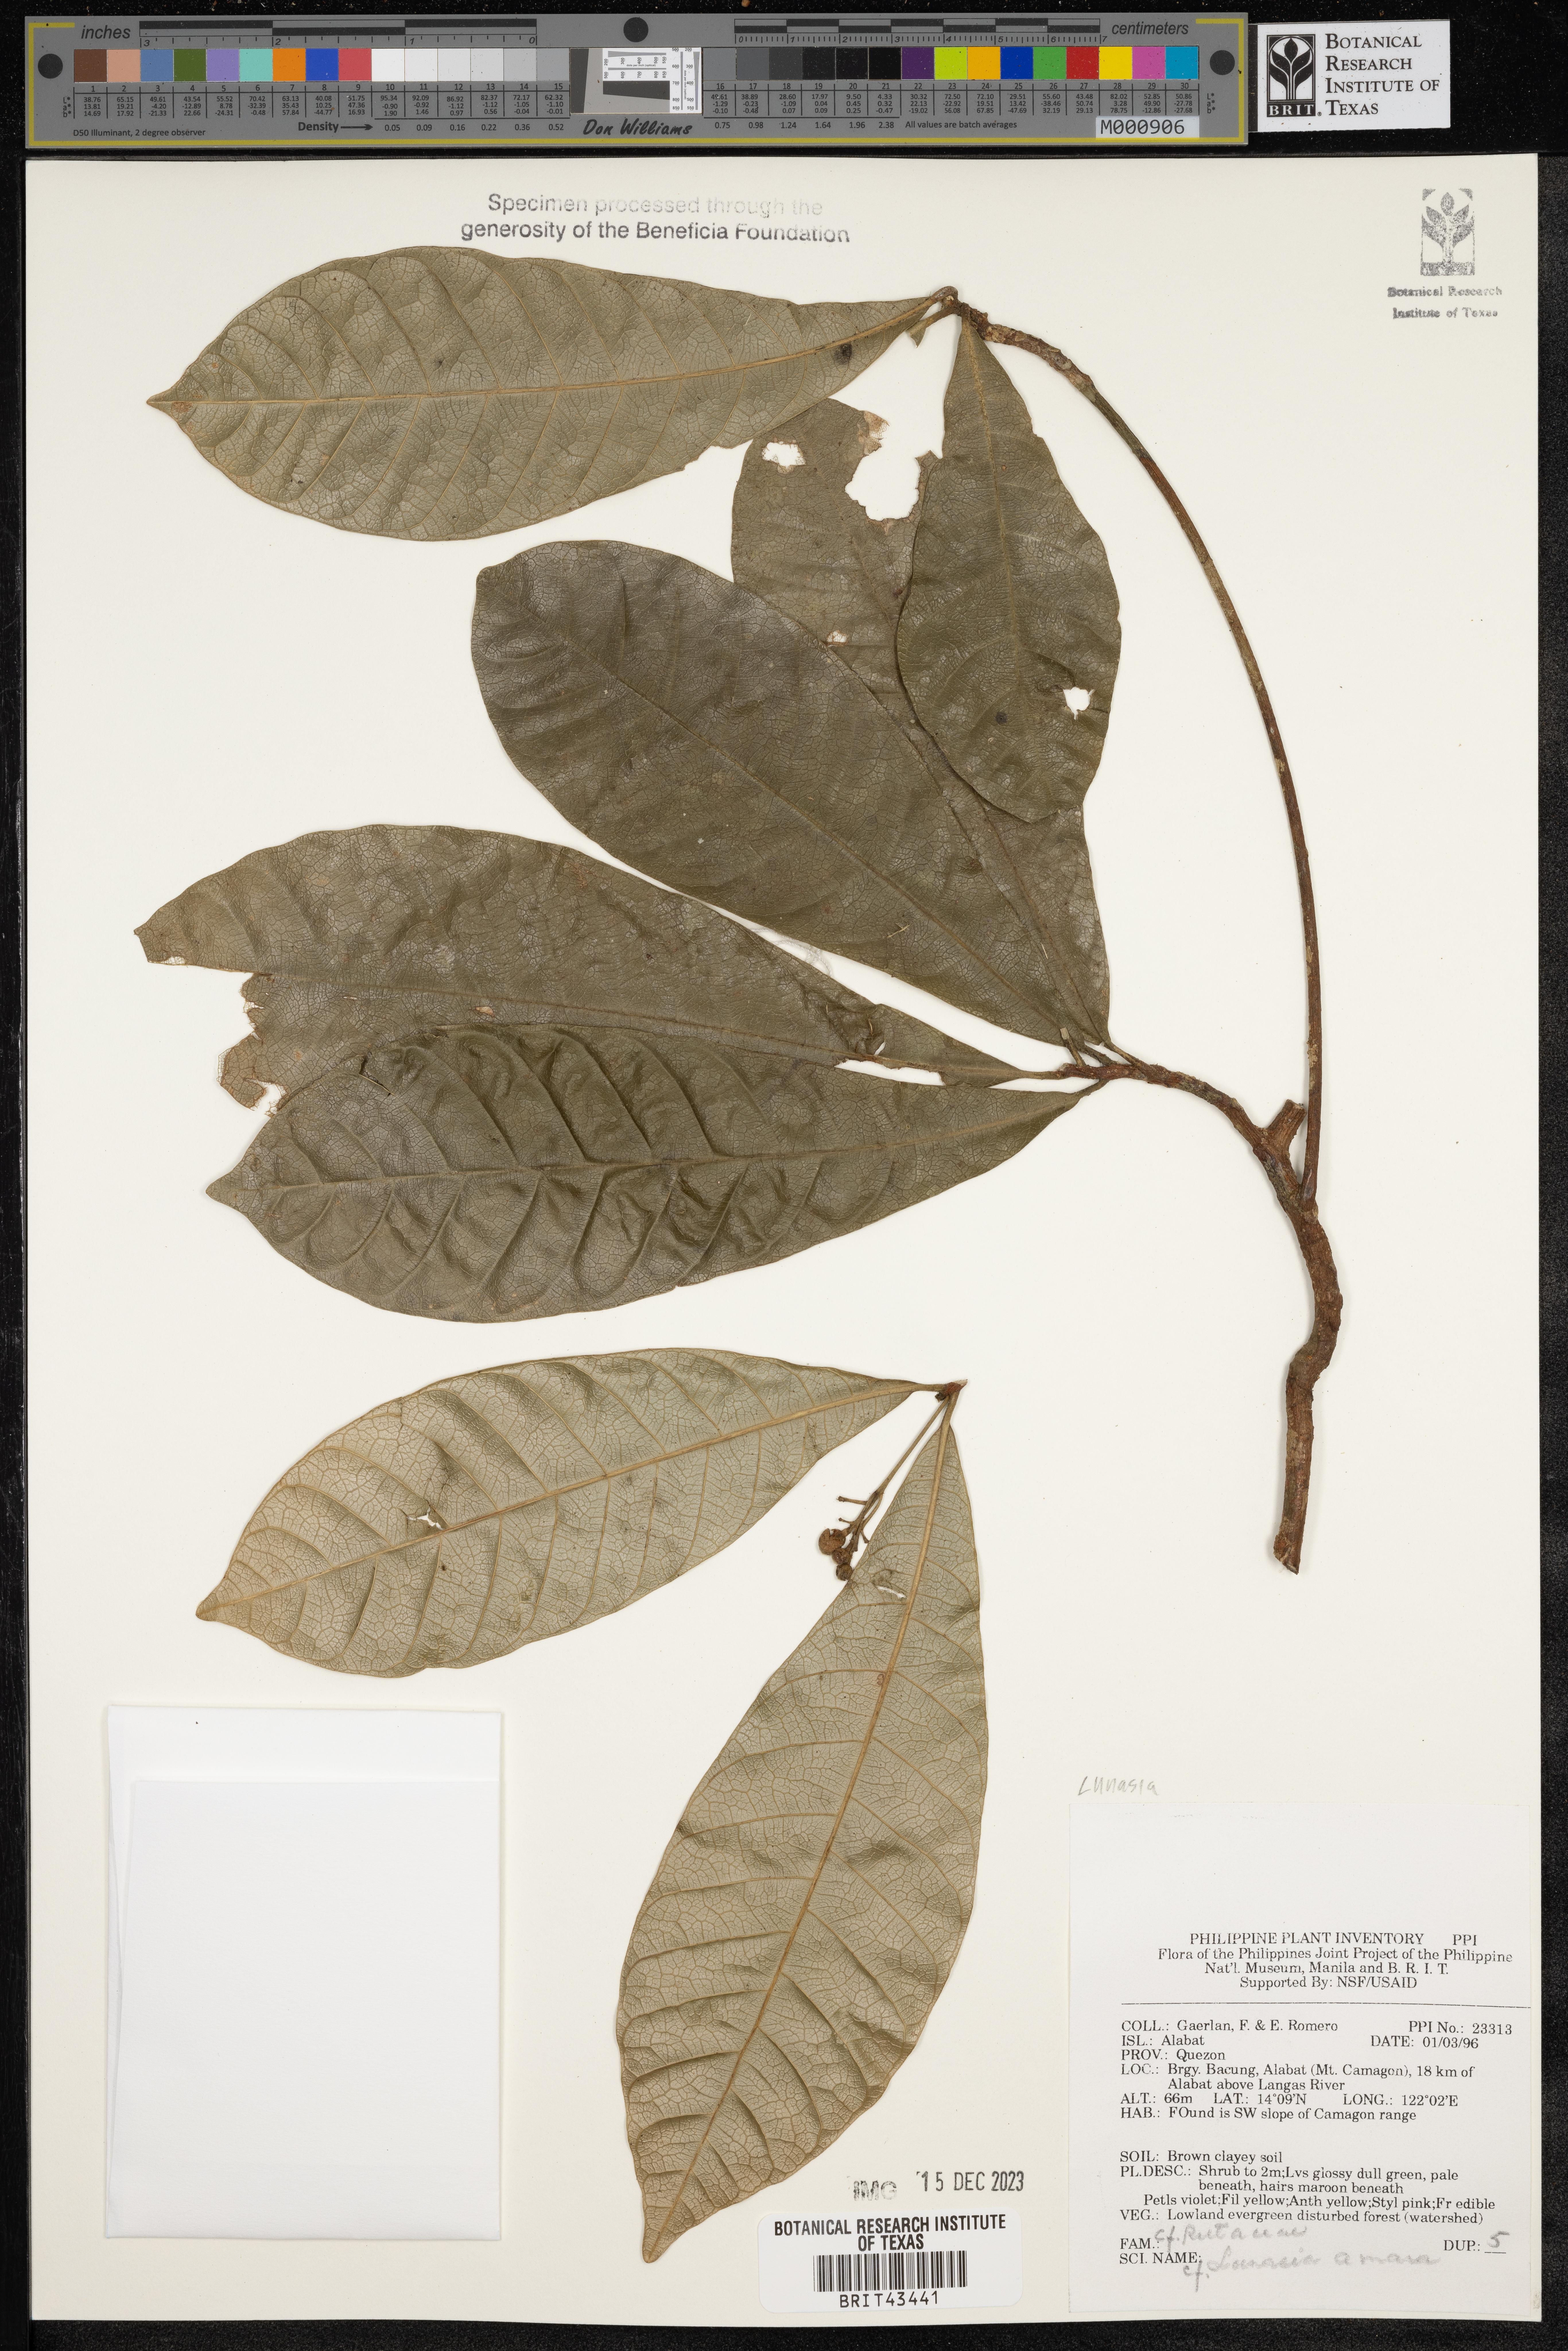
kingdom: Plantae
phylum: Tracheophyta
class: Magnoliopsida
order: Sapindales
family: Rutaceae
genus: Lunasia
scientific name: Lunasia amara
